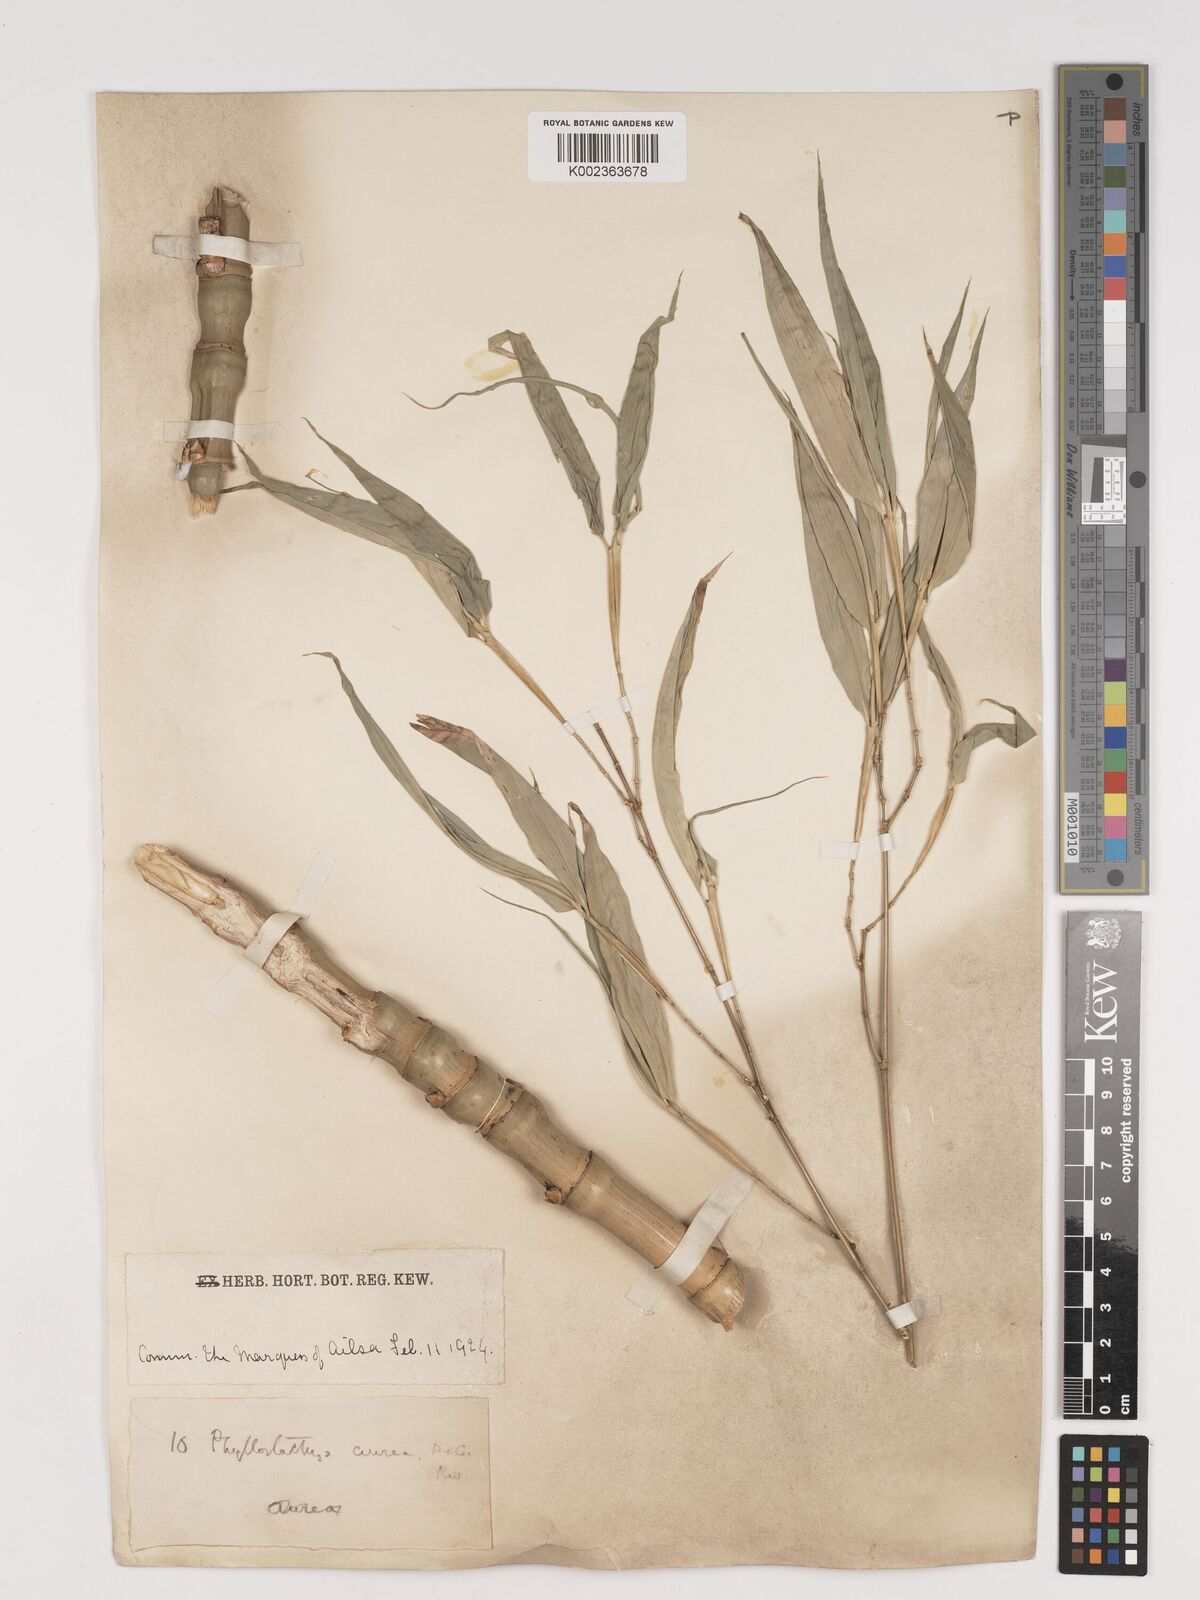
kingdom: Plantae
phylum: Tracheophyta
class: Liliopsida
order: Poales
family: Poaceae
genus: Phyllostachys
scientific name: Phyllostachys aurea
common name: Golden bamboo
